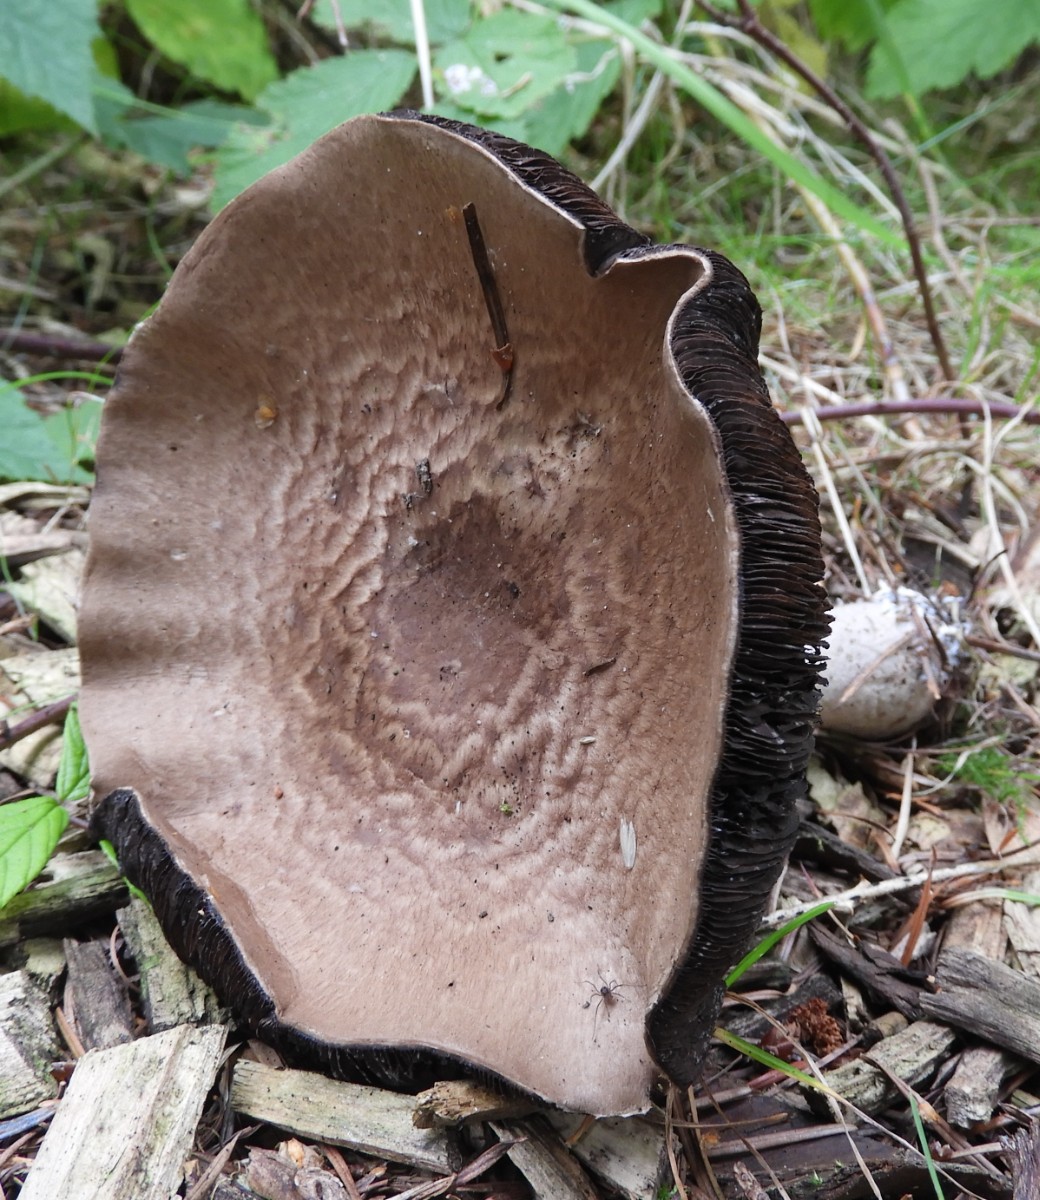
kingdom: Fungi
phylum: Basidiomycota
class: Agaricomycetes
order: Agaricales
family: Agaricaceae
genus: Agaricus
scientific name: Agaricus impudicus
